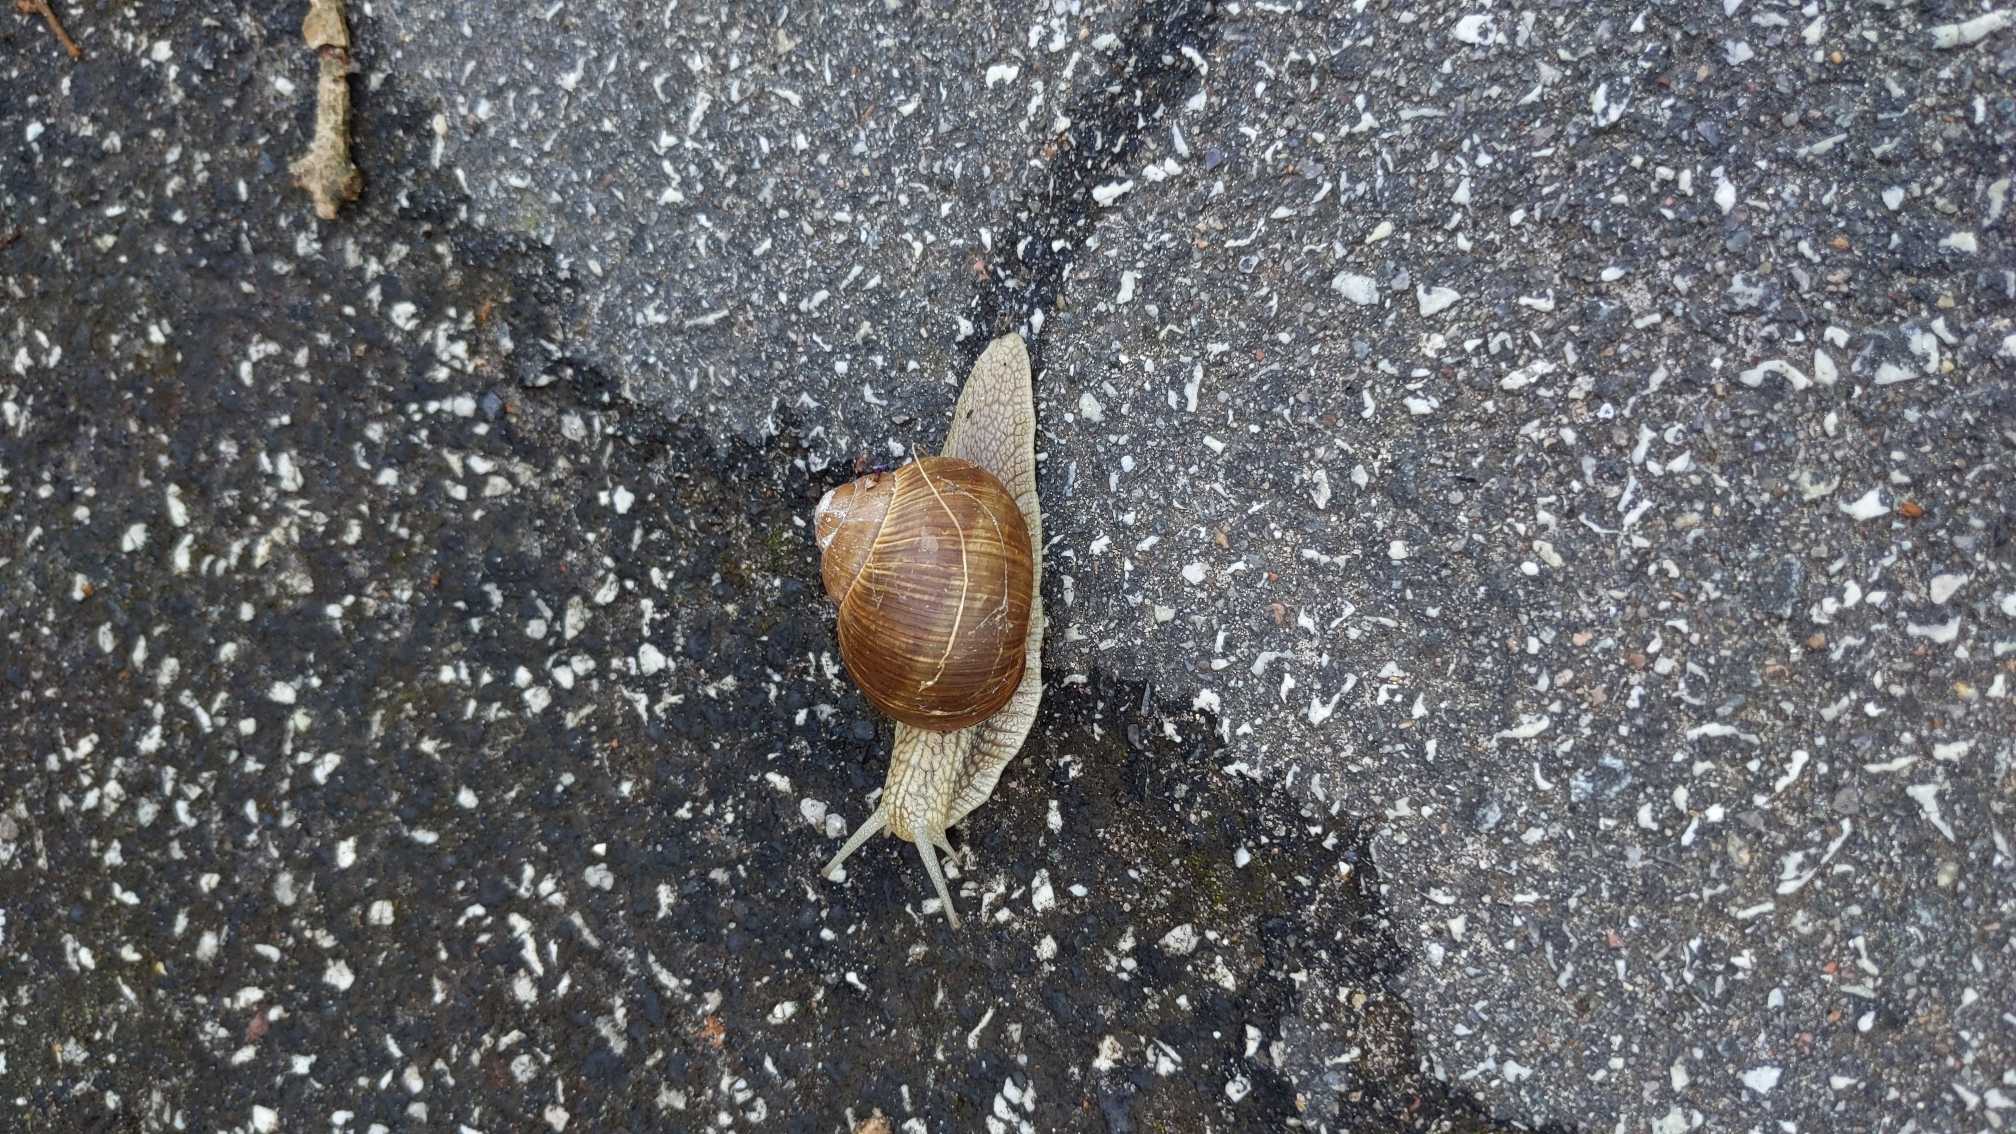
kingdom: Animalia
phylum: Mollusca
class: Gastropoda
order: Stylommatophora
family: Helicidae
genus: Helix
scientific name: Helix pomatia
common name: Vinbjergsnegl
